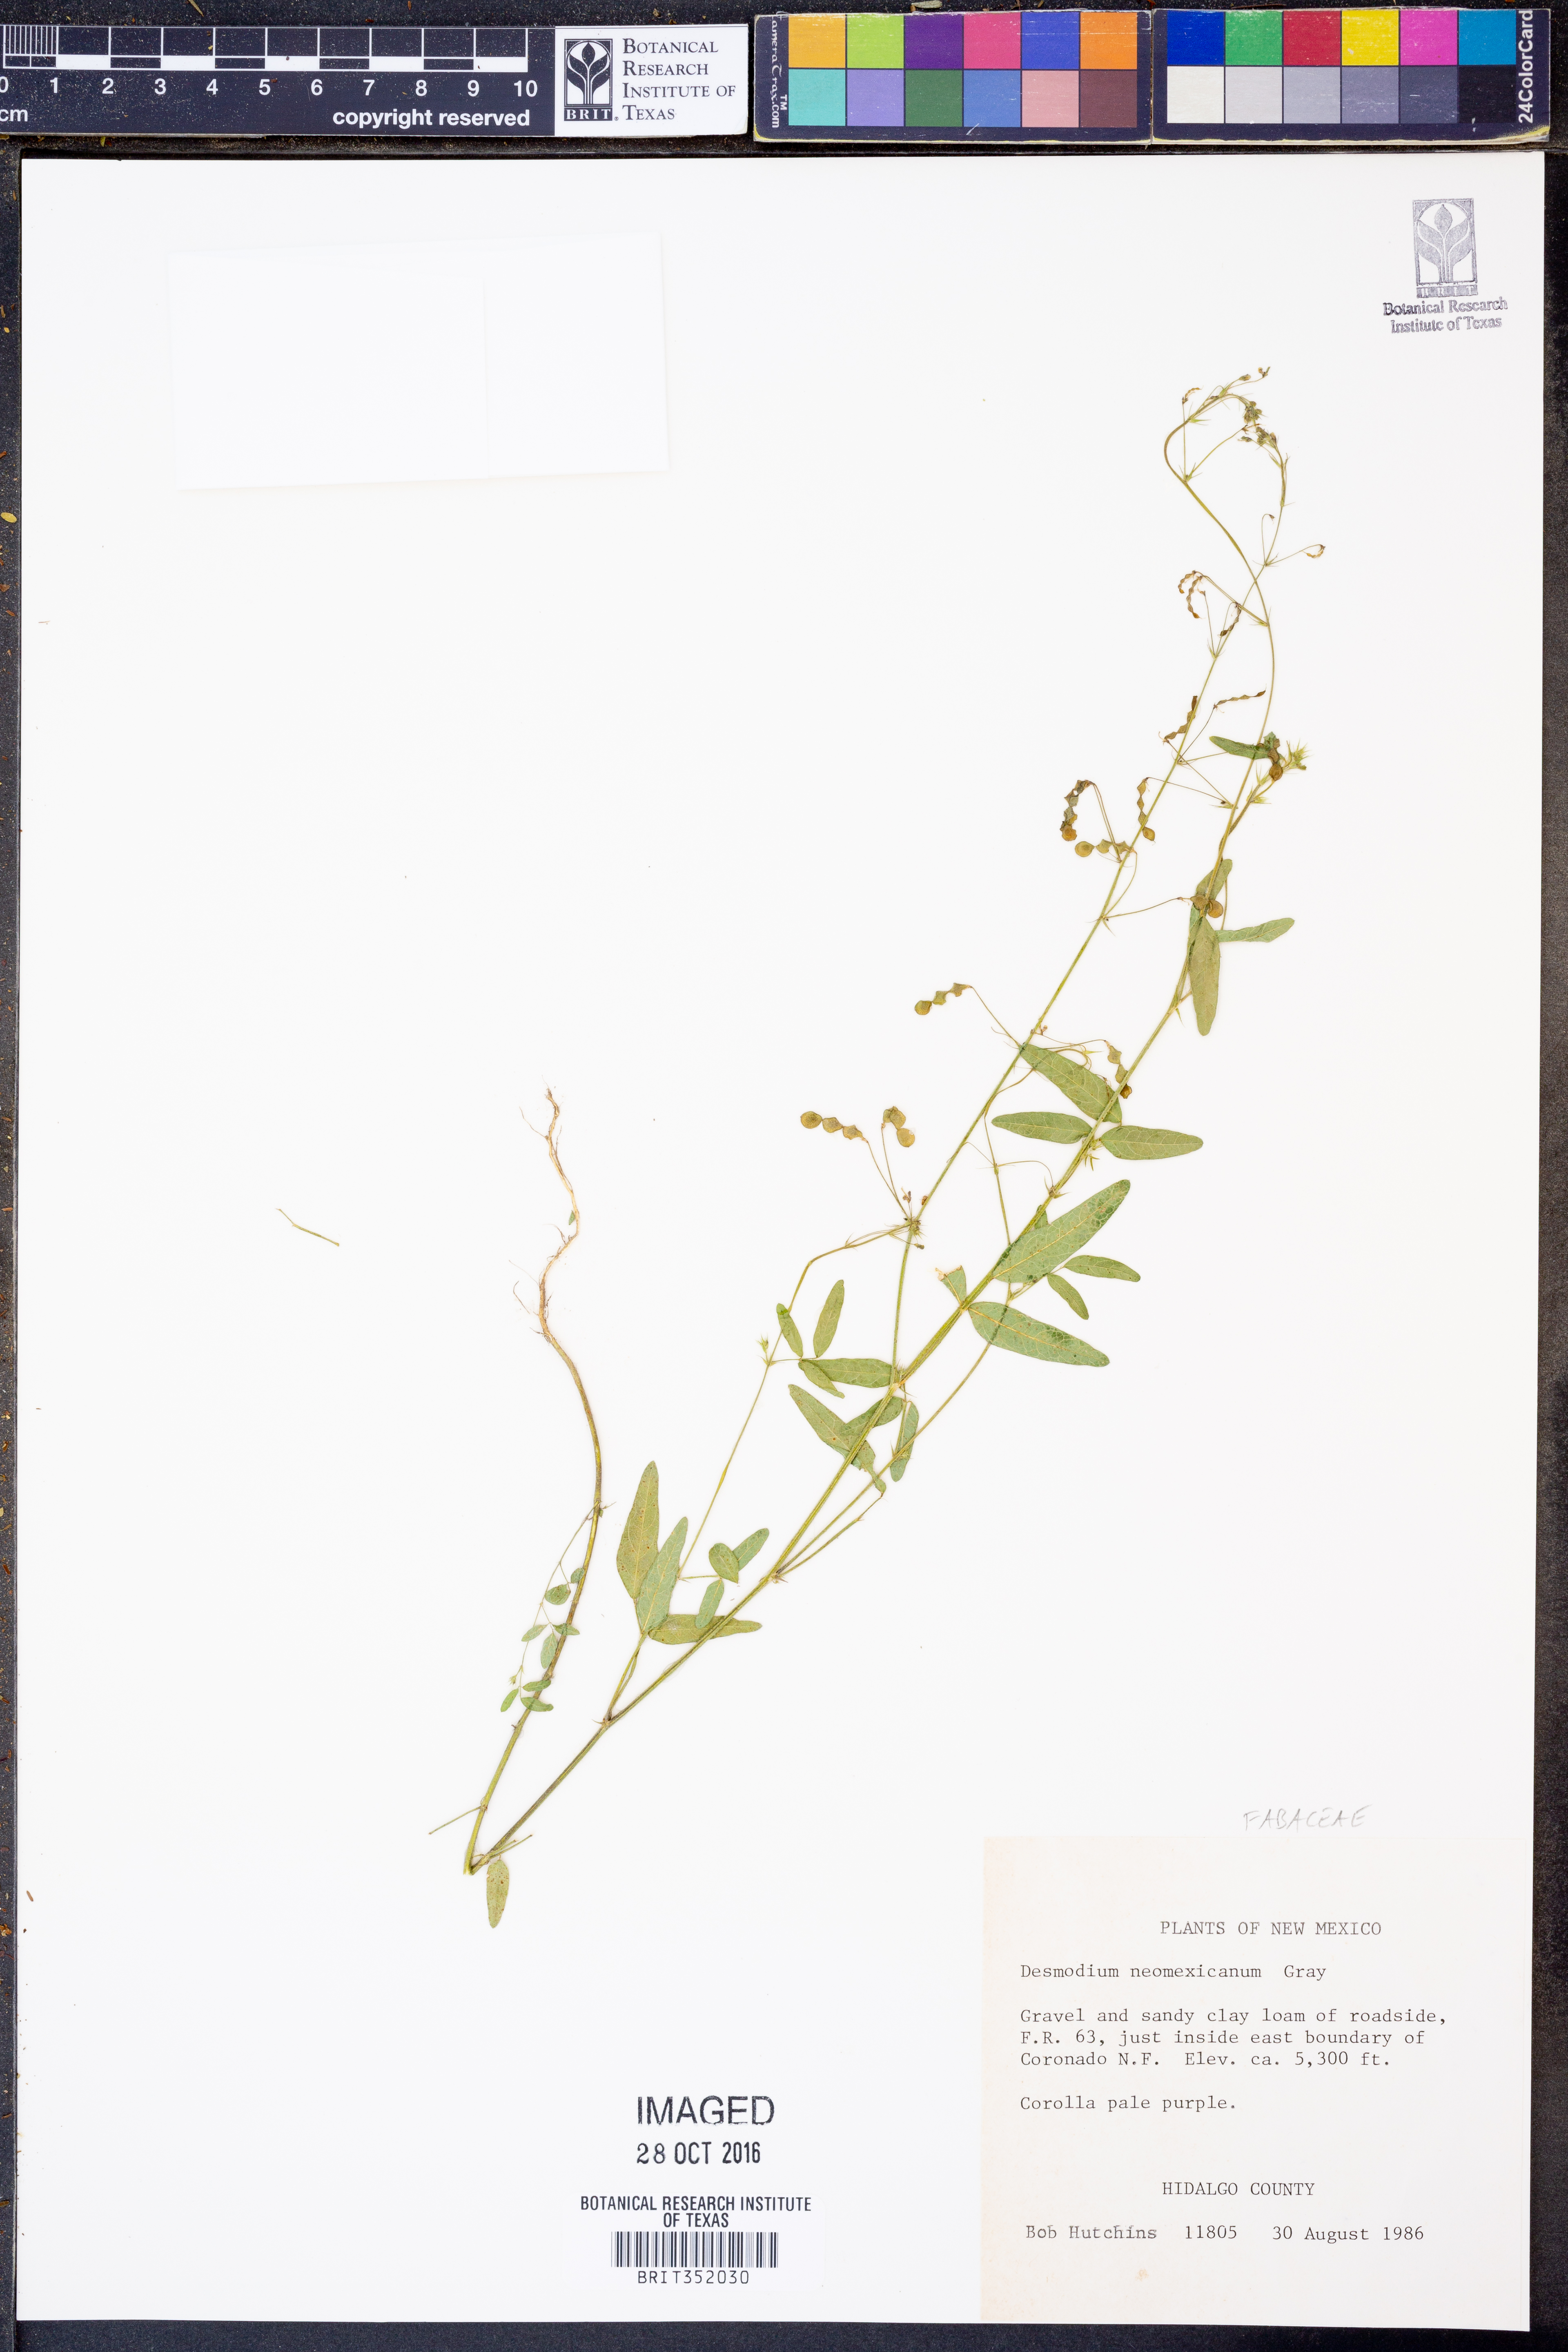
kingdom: Plantae
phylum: Tracheophyta
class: Magnoliopsida
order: Fabales
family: Fabaceae
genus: Desmodium
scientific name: Desmodium procumbens
